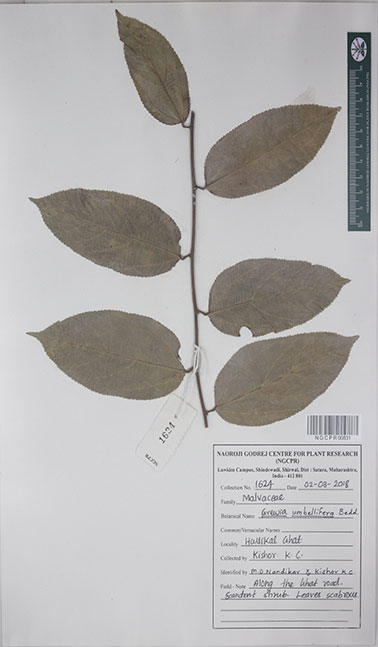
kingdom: Plantae
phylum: Tracheophyta
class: Magnoliopsida
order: Malvales
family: Malvaceae
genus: Grewia
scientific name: Grewia umbellifera
